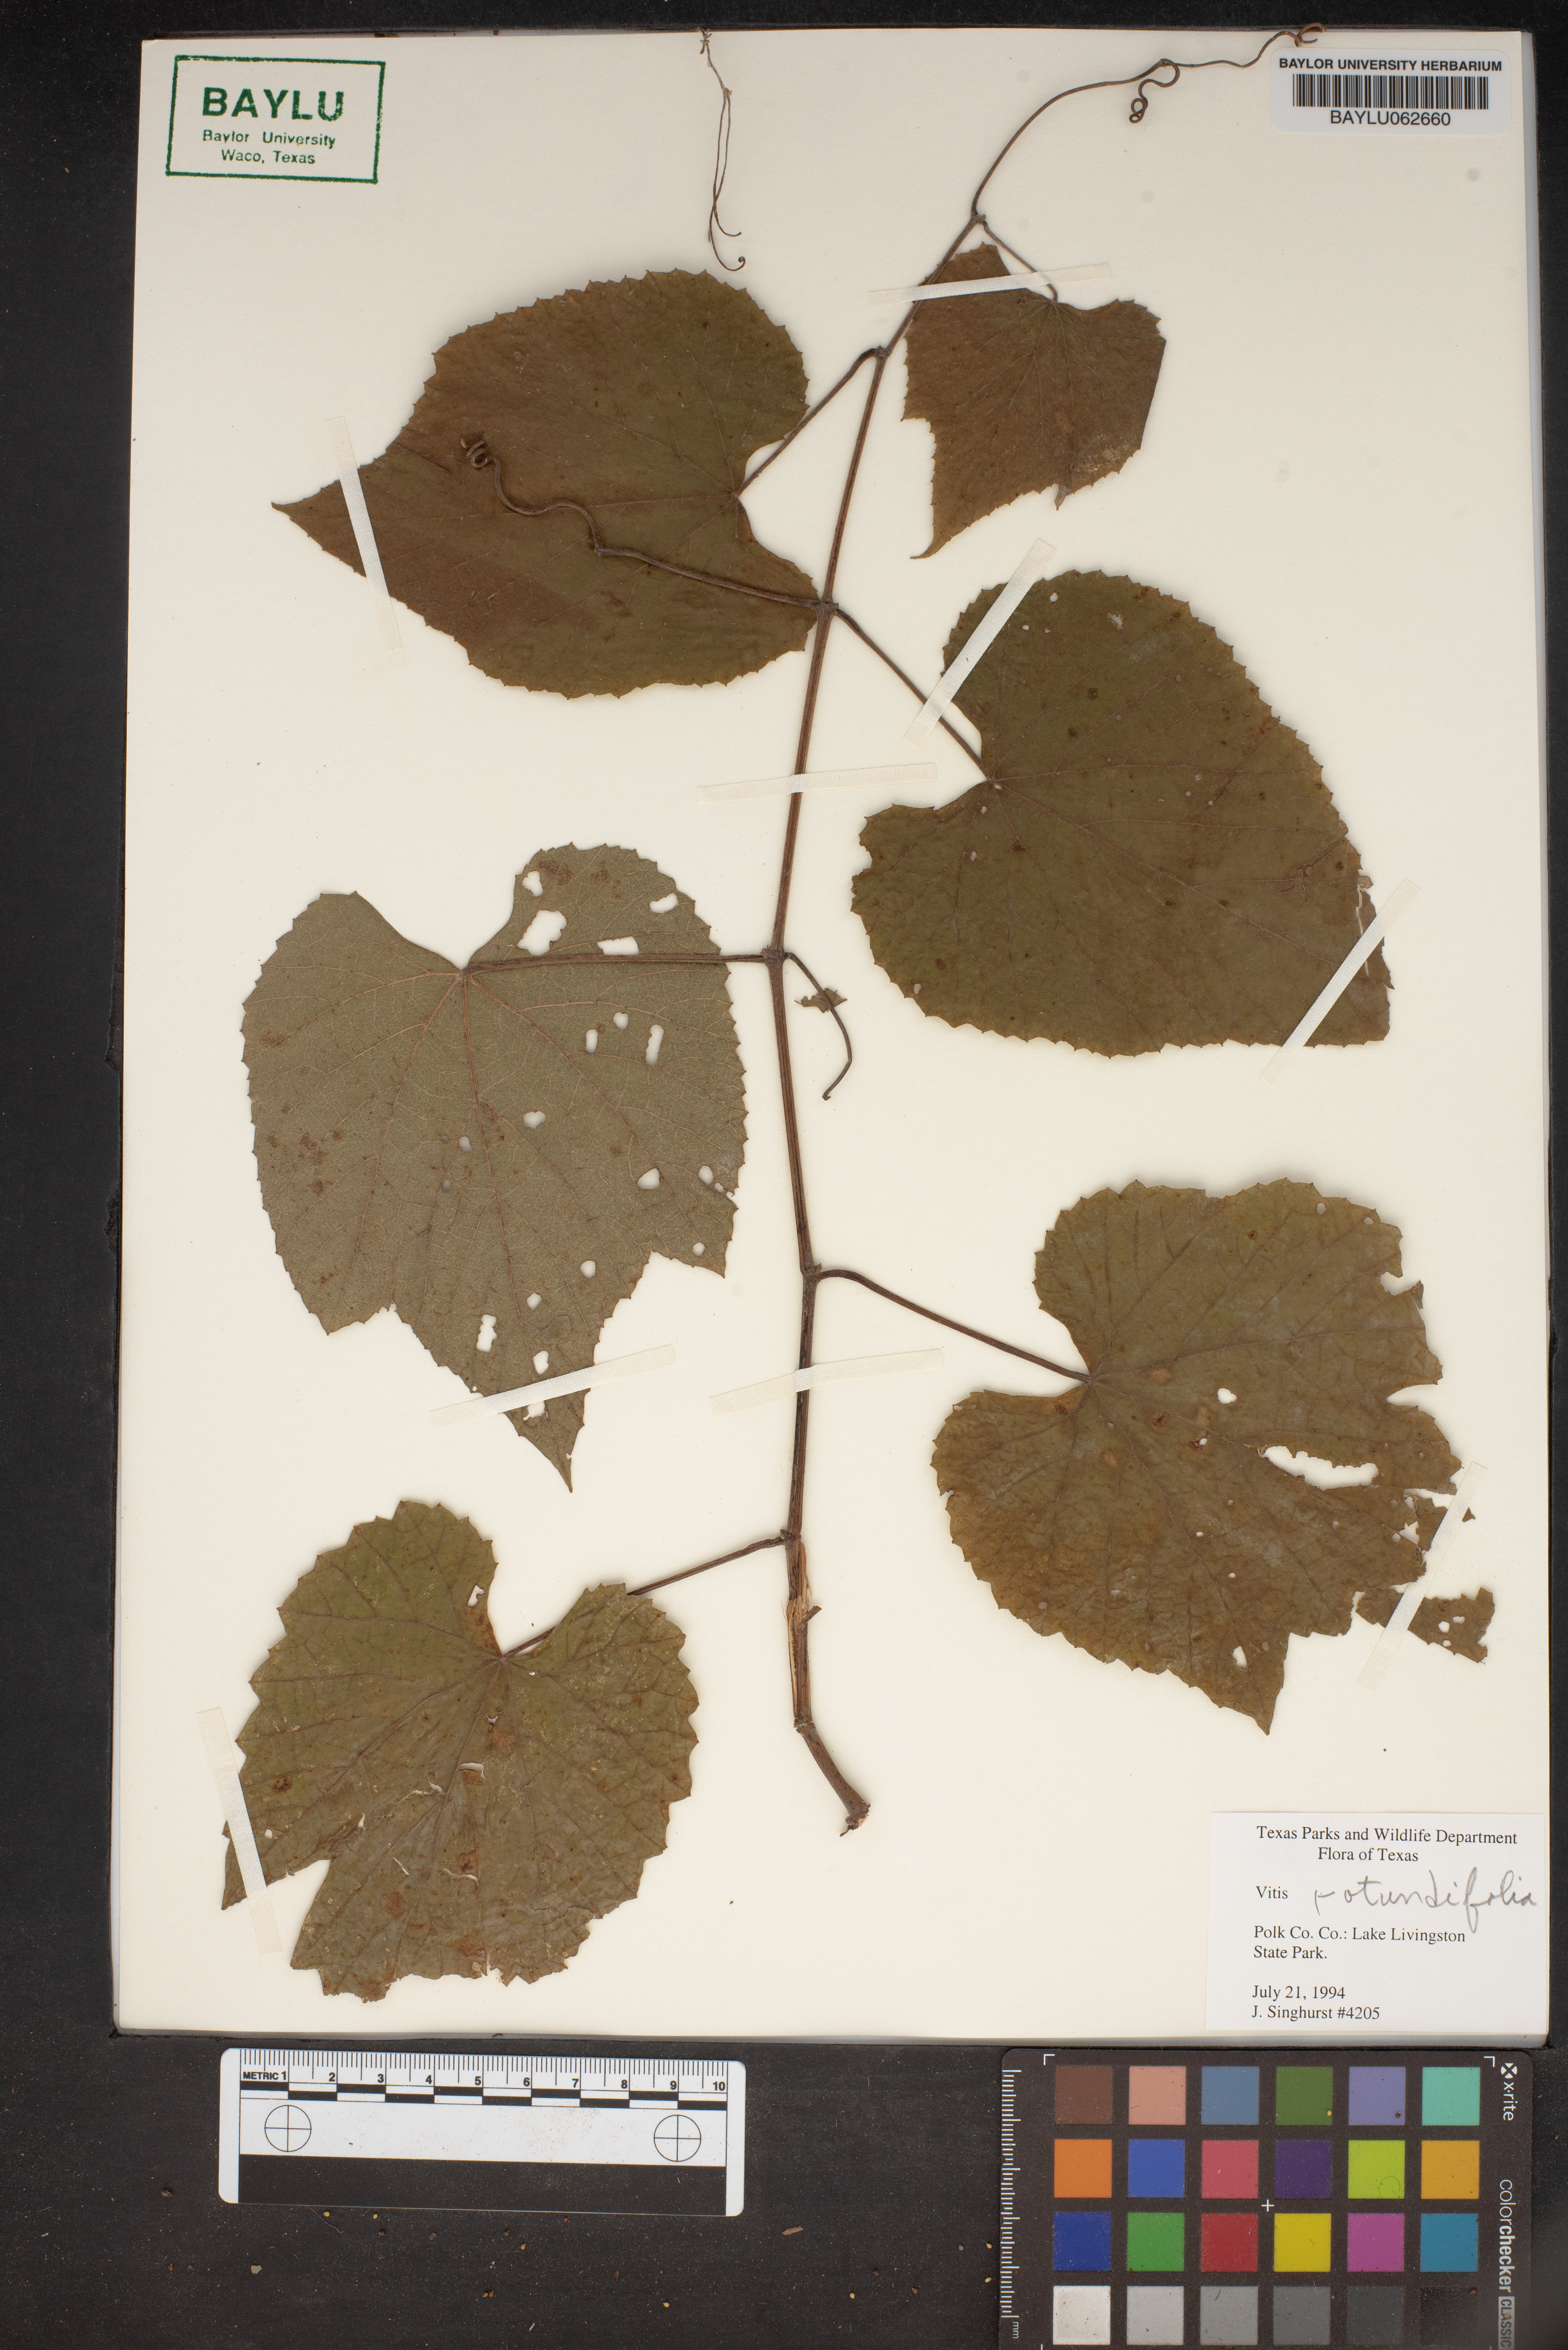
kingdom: Plantae
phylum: Tracheophyta
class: Magnoliopsida
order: Vitales
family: Vitaceae
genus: Vitis
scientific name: Vitis rotundifolia
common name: Muscadine grape
